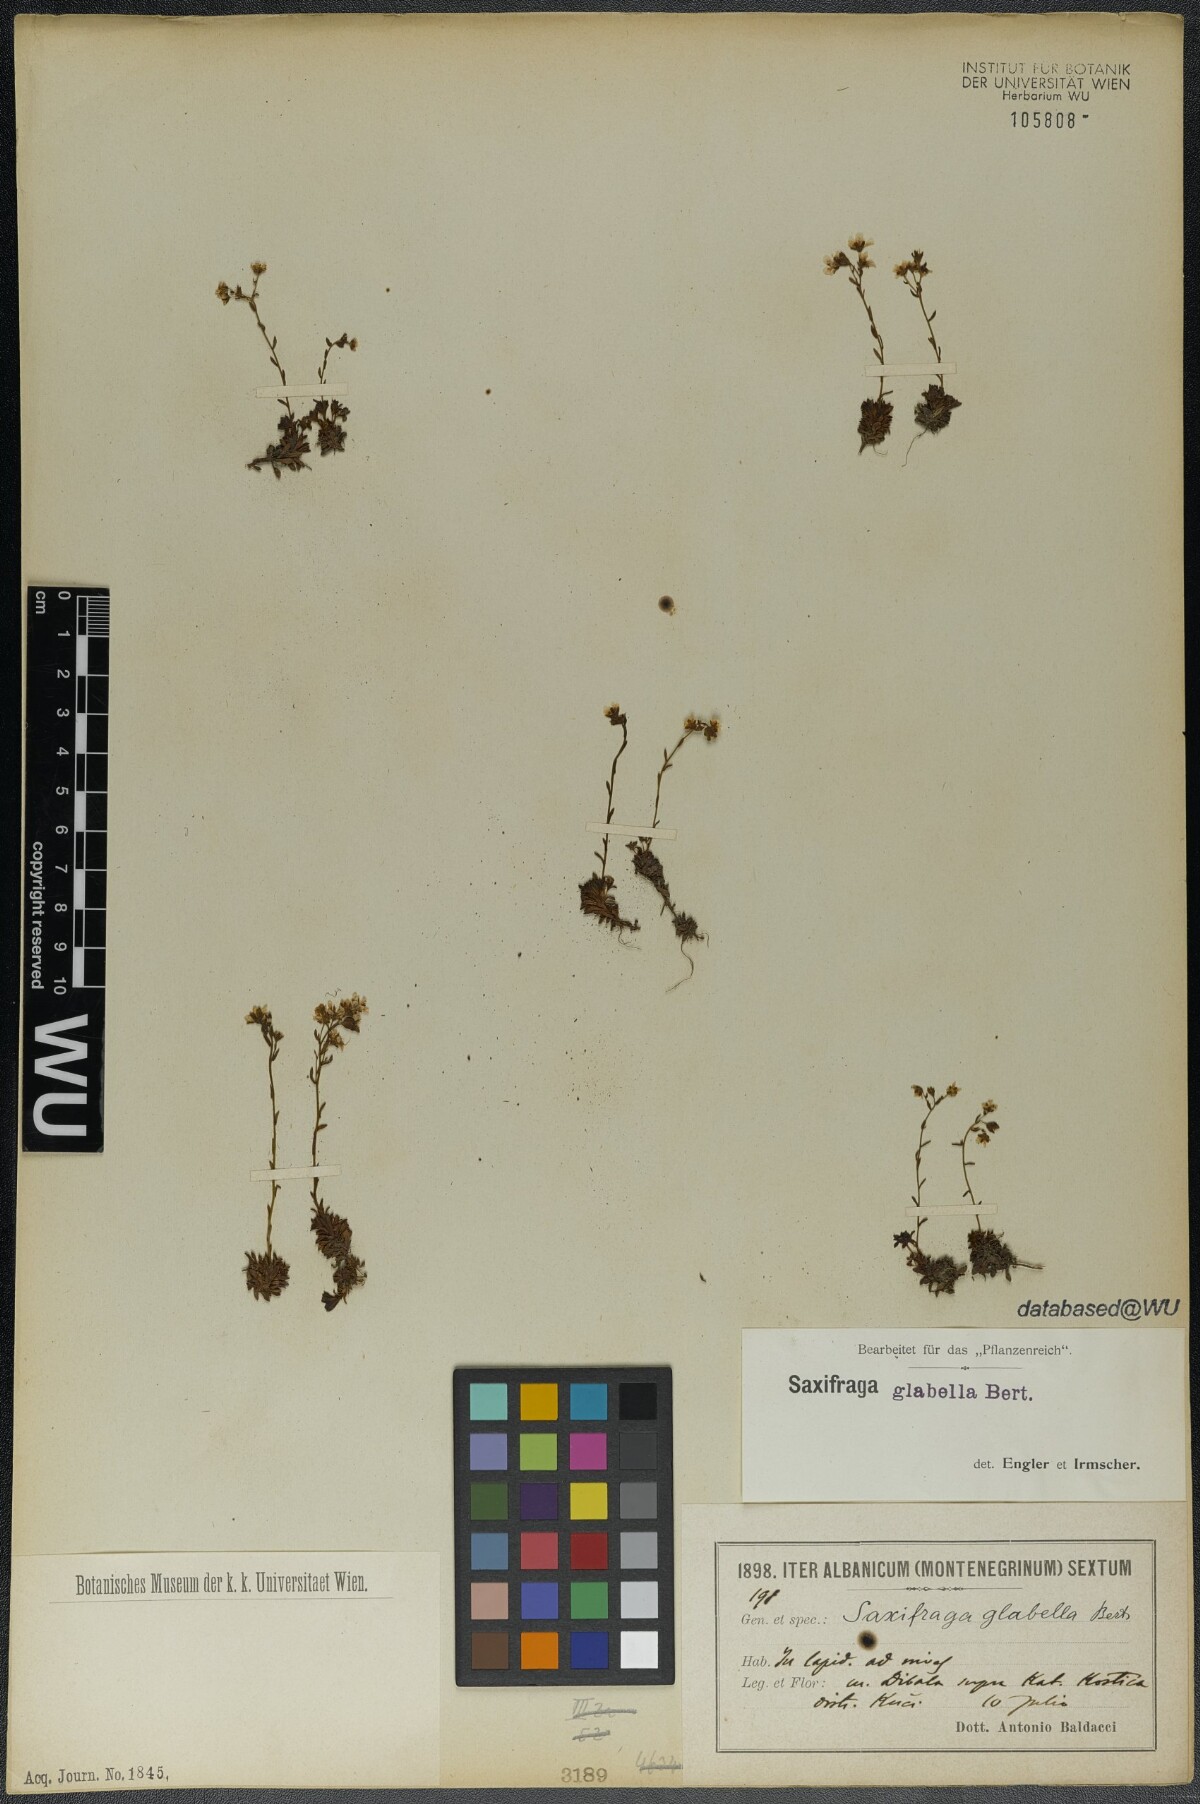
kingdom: Plantae
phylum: Tracheophyta
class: Magnoliopsida
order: Saxifragales
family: Saxifragaceae
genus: Saxifraga
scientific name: Saxifraga glabella
